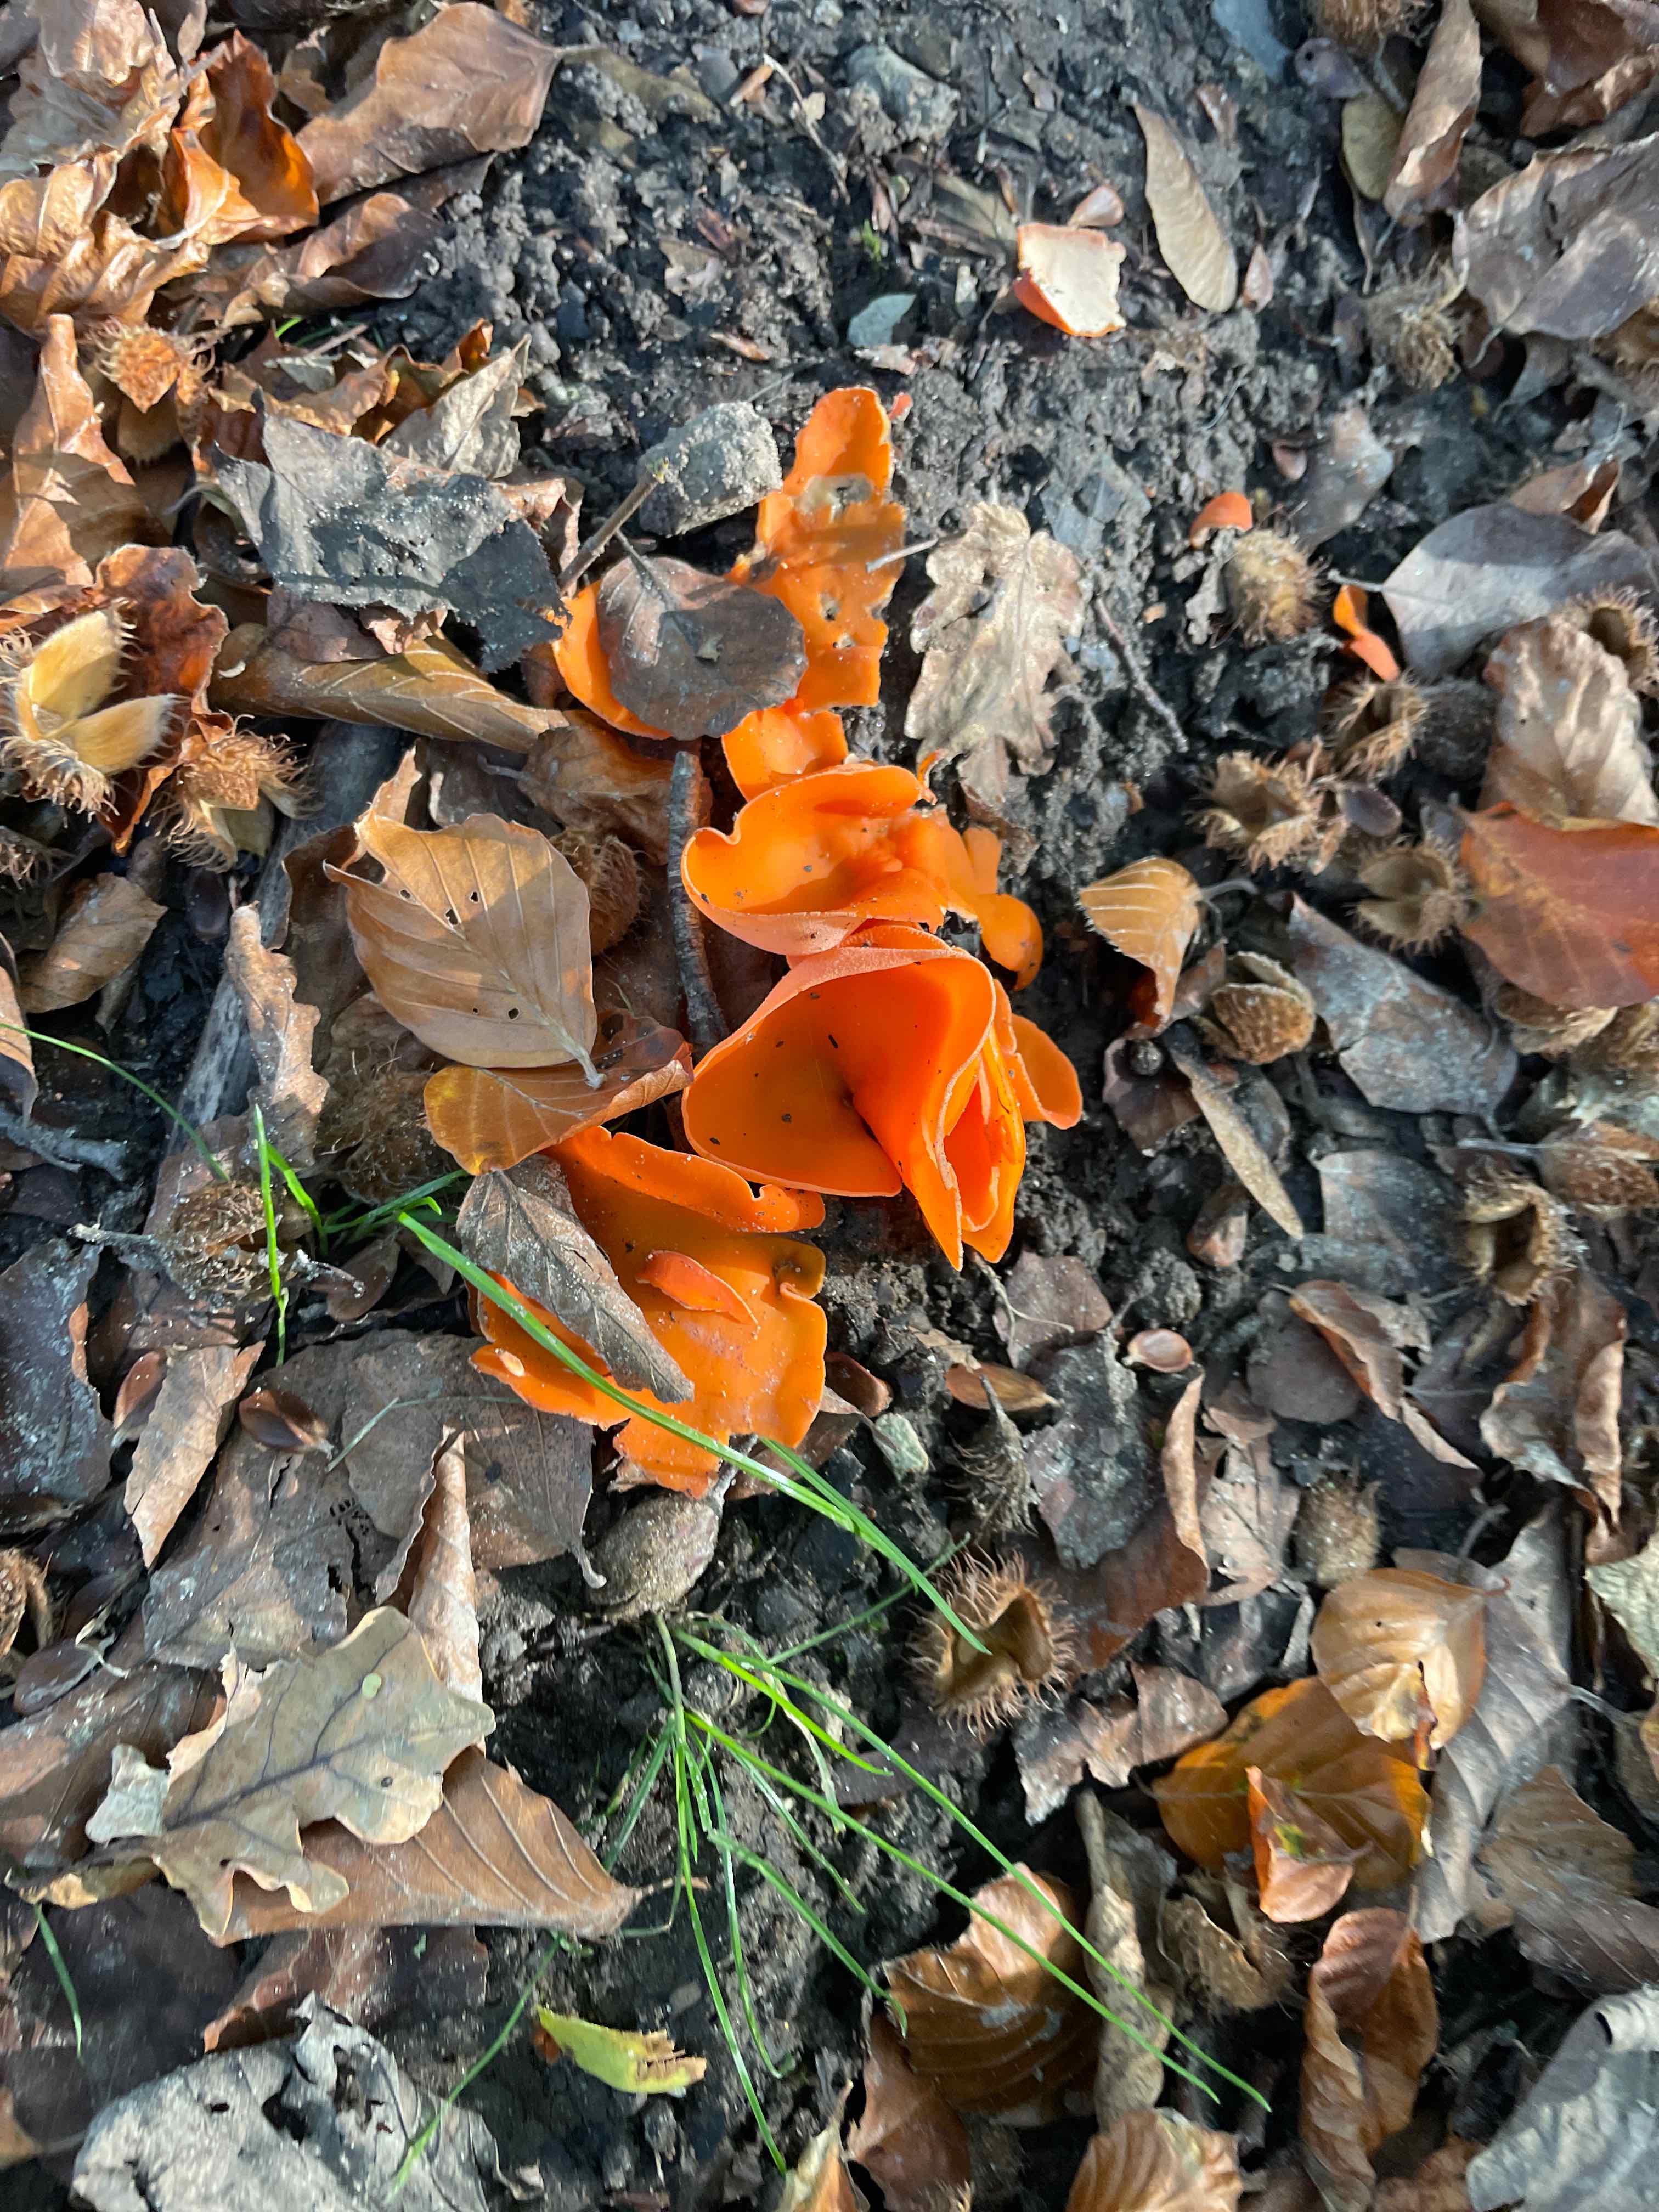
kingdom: Fungi
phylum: Ascomycota
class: Pezizomycetes
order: Pezizales
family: Pyronemataceae
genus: Aleuria
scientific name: Aleuria aurantia
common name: almindelig orangebæger
